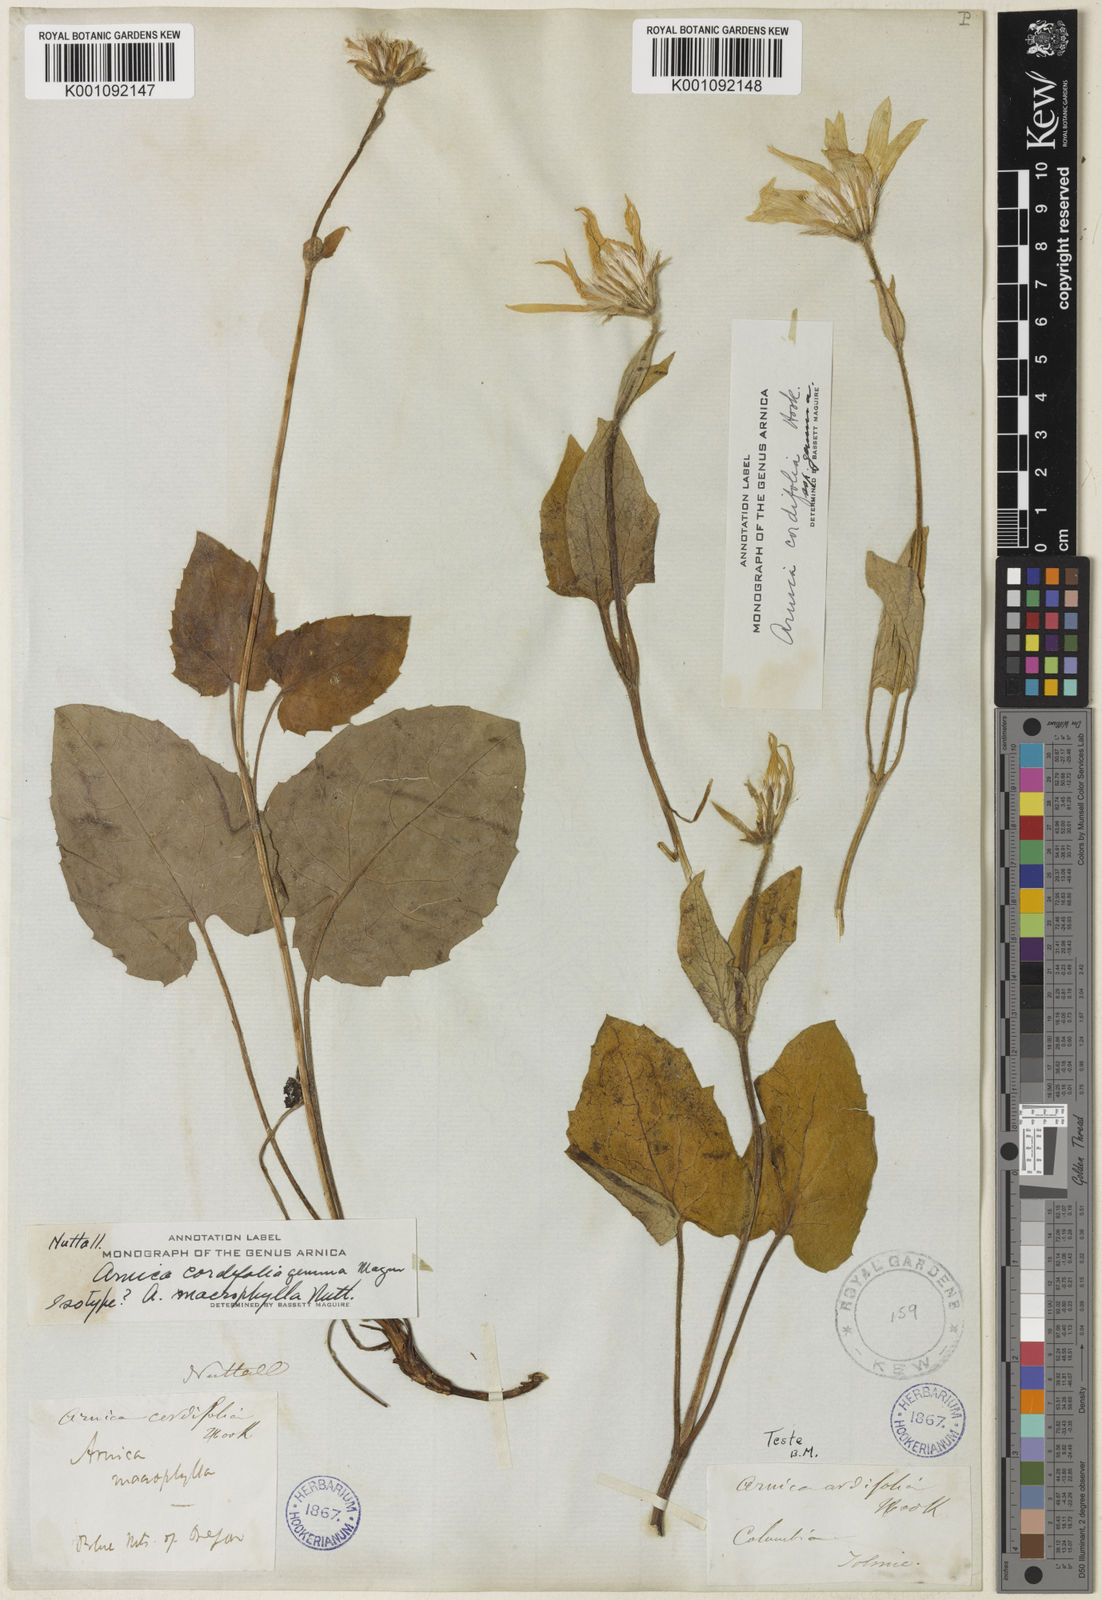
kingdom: Plantae
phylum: Tracheophyta
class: Magnoliopsida
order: Asterales
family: Asteraceae
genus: Arnica
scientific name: Arnica cordifolia
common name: Heart-leaf arnica
